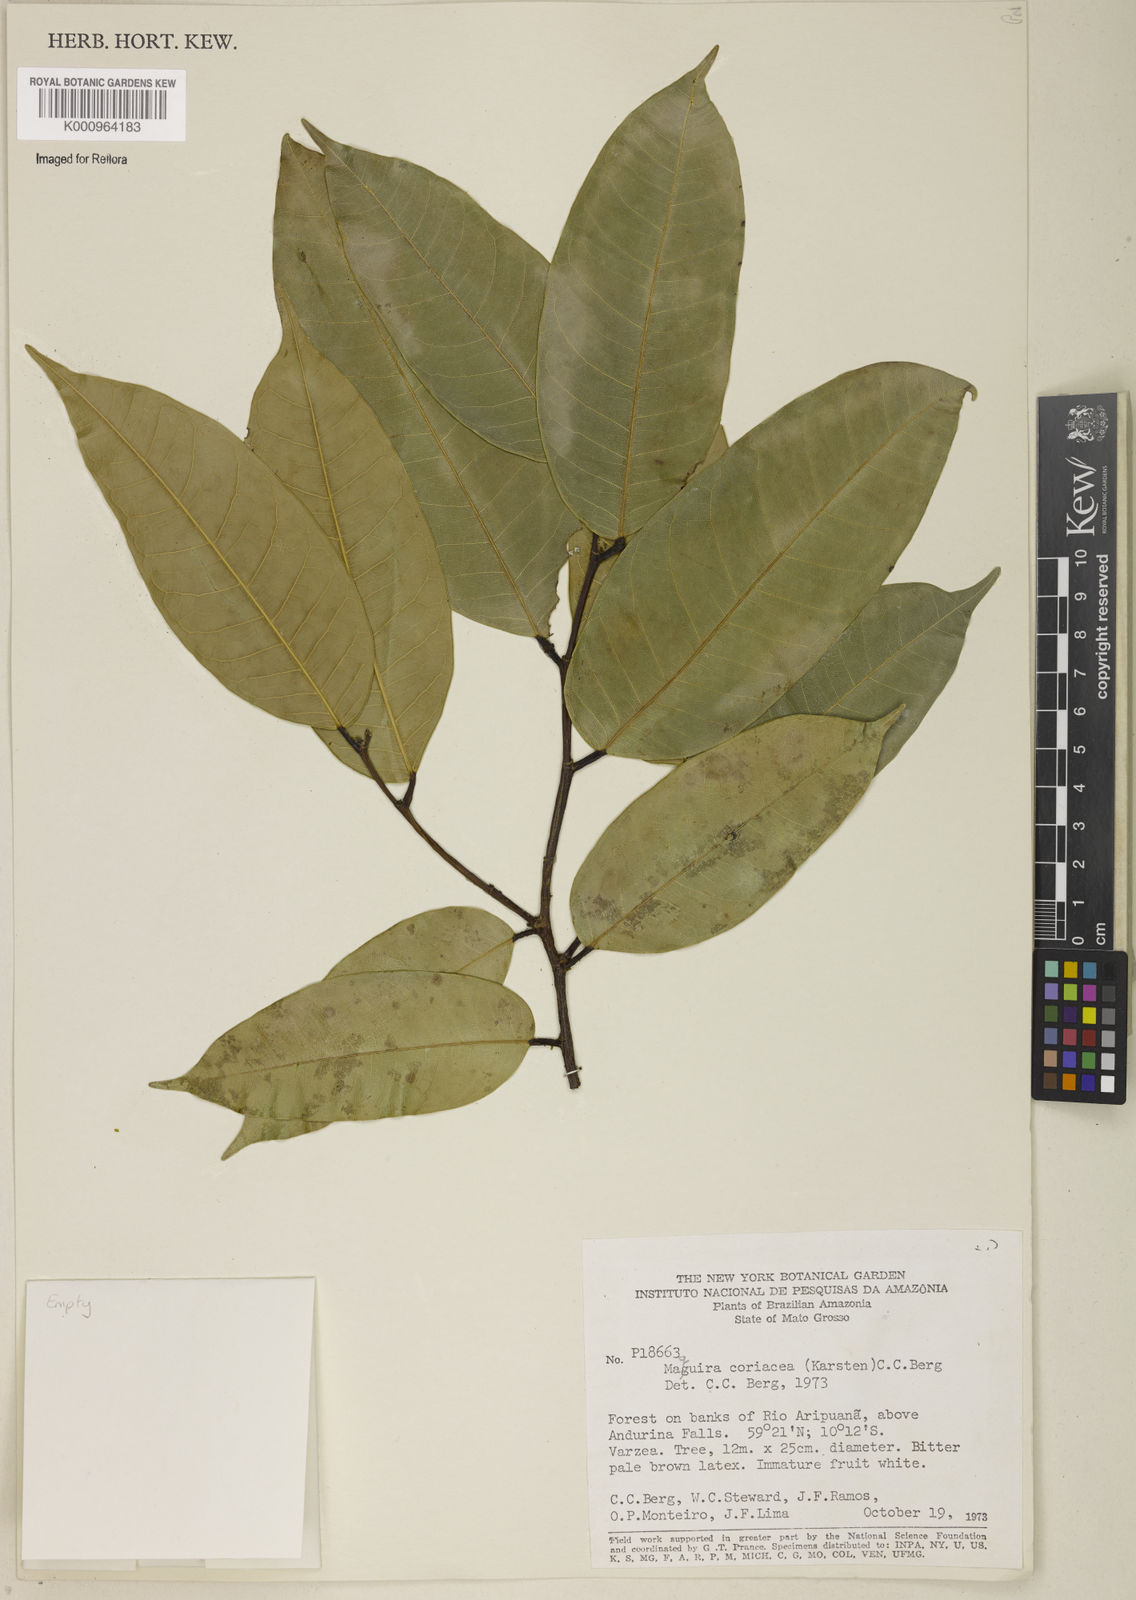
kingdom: Plantae
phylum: Tracheophyta
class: Magnoliopsida
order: Rosales
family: Moraceae
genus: Maquira
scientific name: Maquira coriacea
